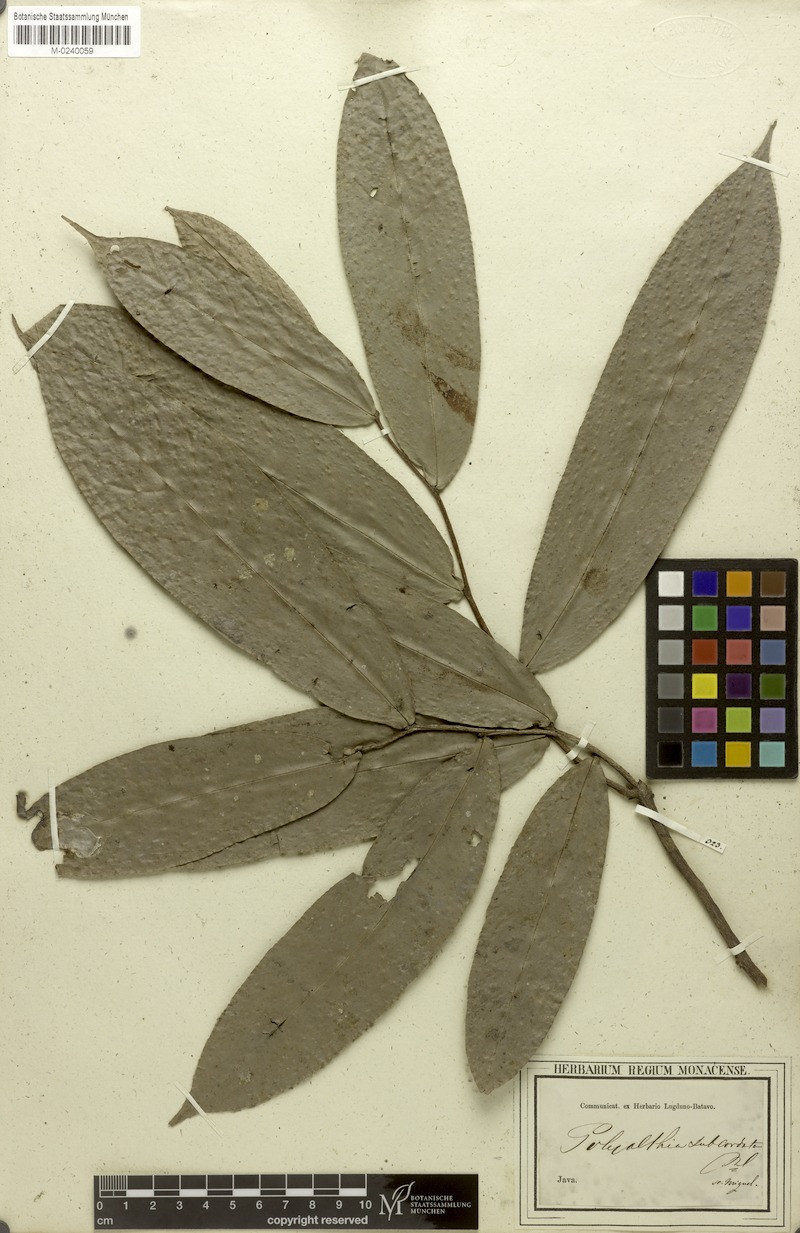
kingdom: Plantae
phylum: Tracheophyta
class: Magnoliopsida
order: Magnoliales
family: Annonaceae
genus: Polyalthia
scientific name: Polyalthia subcordata
